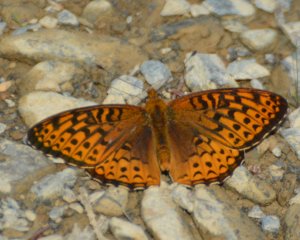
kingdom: Animalia
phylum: Arthropoda
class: Insecta
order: Lepidoptera
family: Nymphalidae
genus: Speyeria
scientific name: Speyeria atlantis
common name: Atlantis Fritillary
